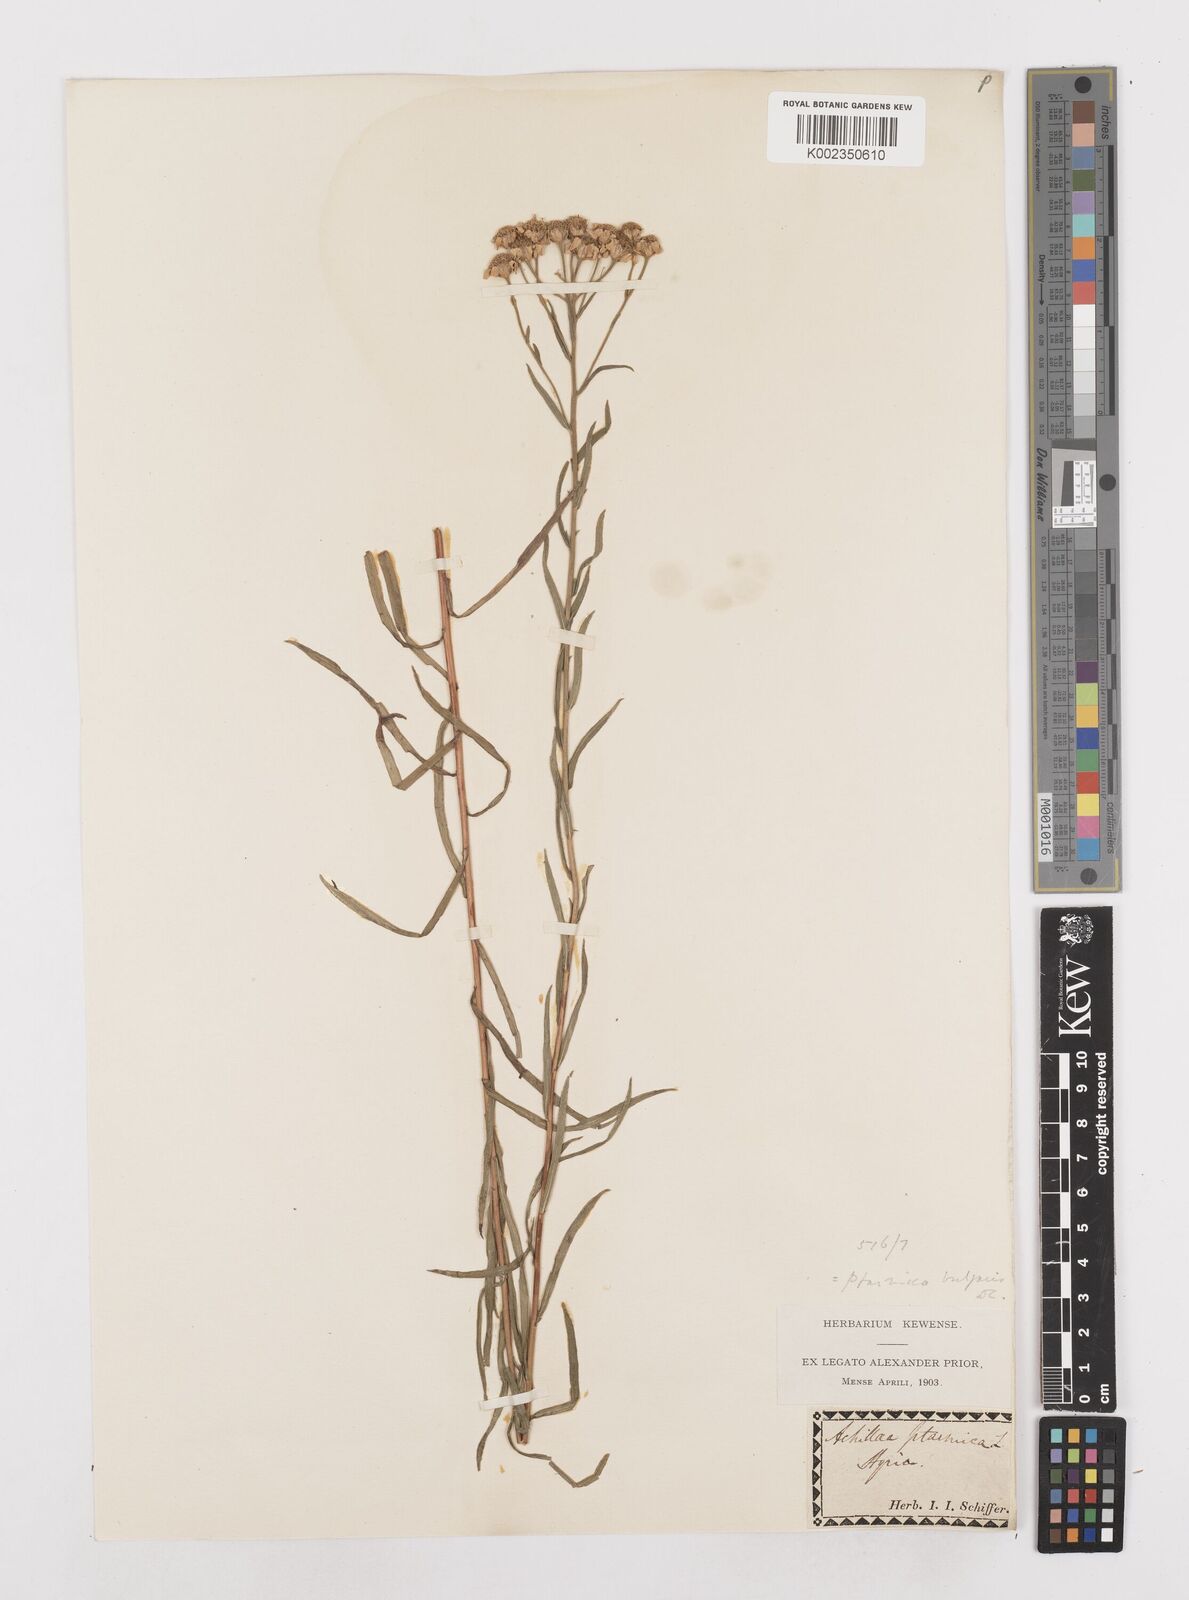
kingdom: Plantae
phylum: Tracheophyta
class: Magnoliopsida
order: Asterales
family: Asteraceae
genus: Achillea
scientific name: Achillea ptarmica
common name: Sneezeweed
